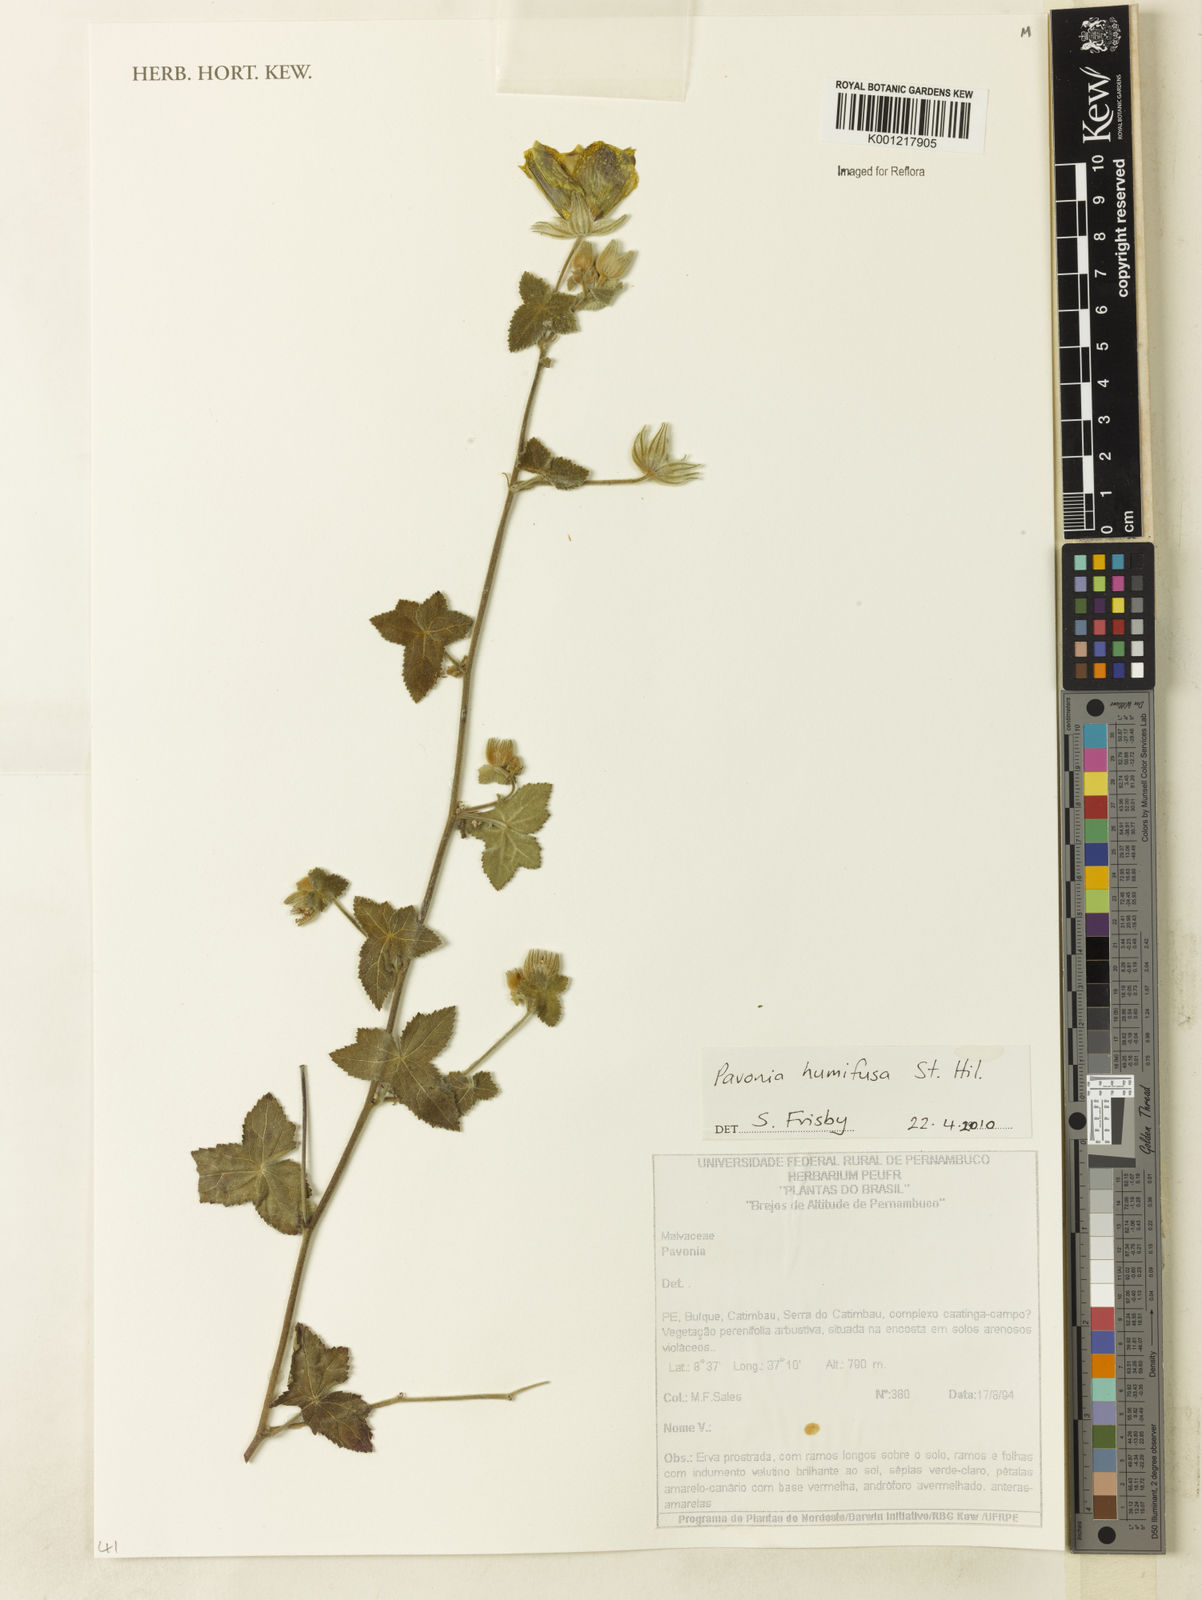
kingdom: Plantae
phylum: Tracheophyta
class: Magnoliopsida
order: Malvales
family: Malvaceae
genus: Pavonia
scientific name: Pavonia humifusa
